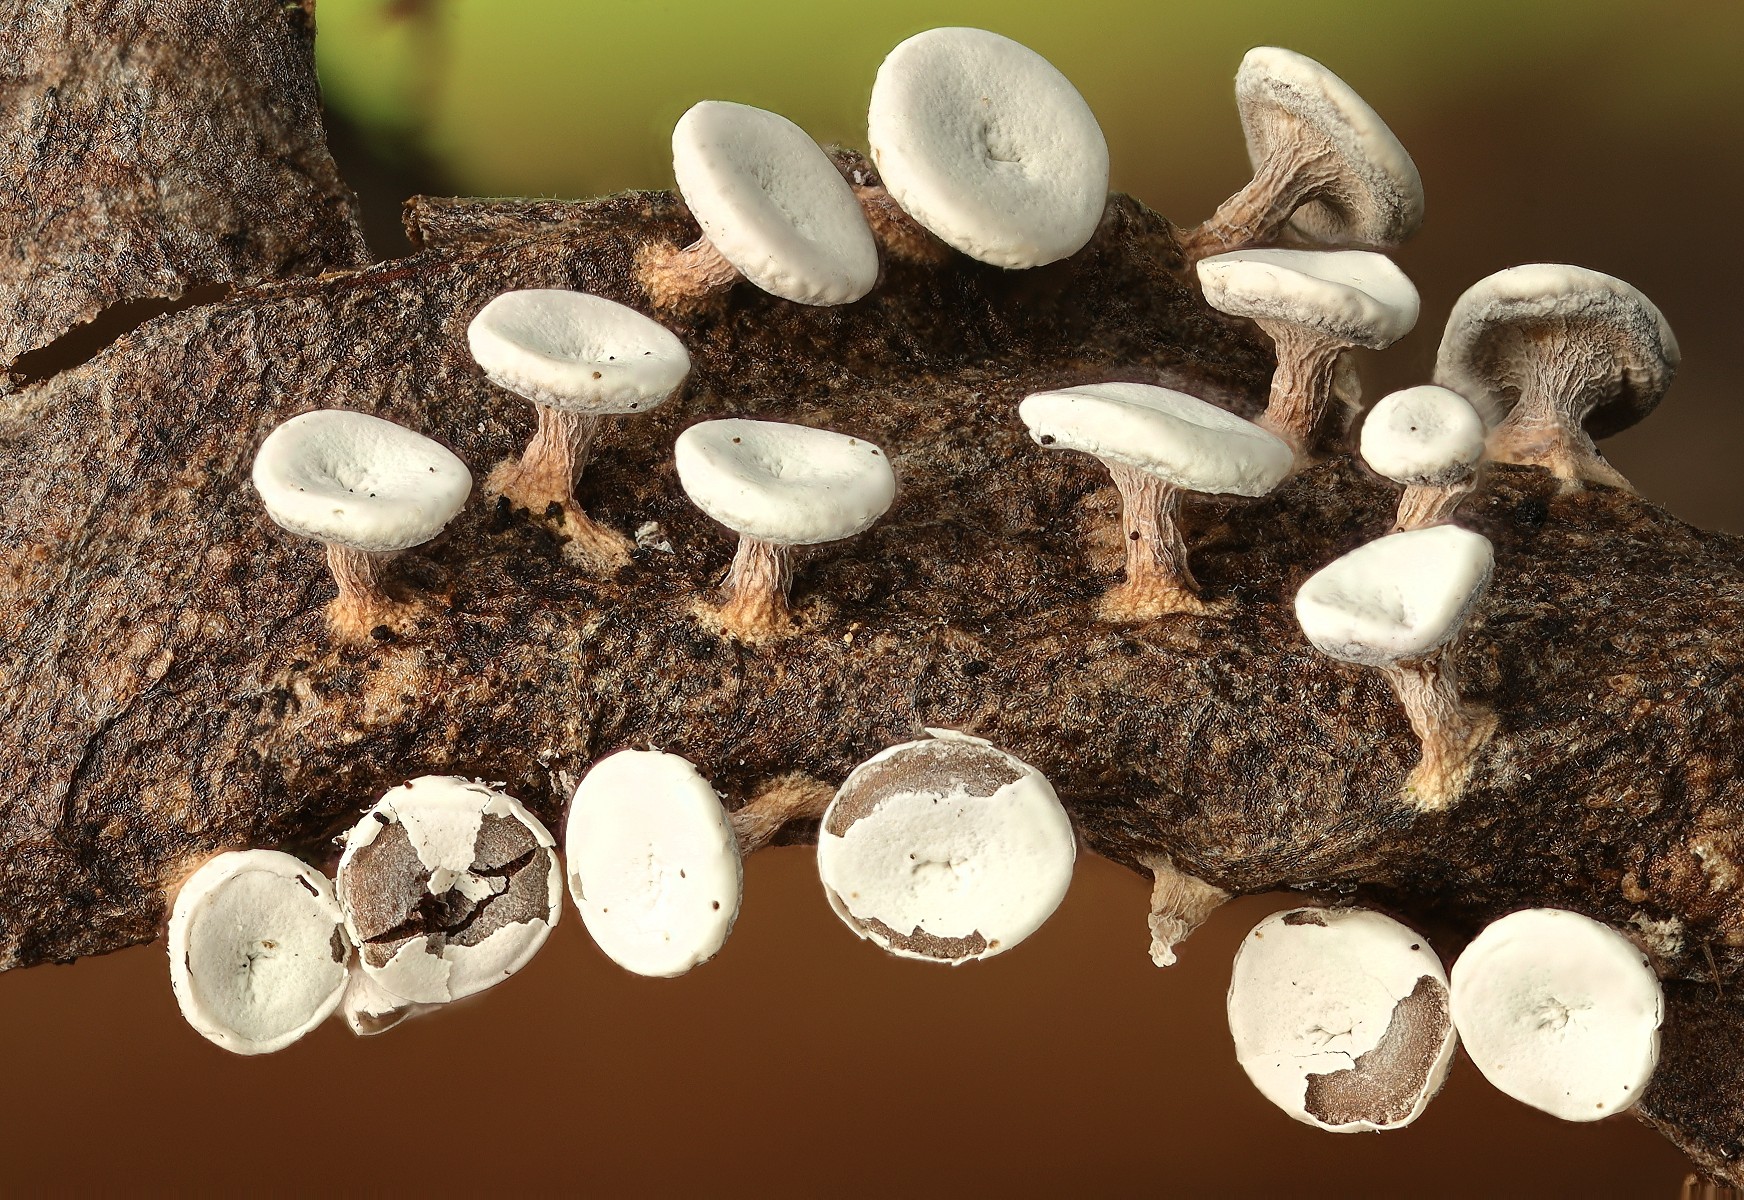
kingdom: Protozoa
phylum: Mycetozoa
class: Myxomycetes
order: Physarales
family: Didymiaceae
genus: Diderma
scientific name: Diderma hemisphaericum
